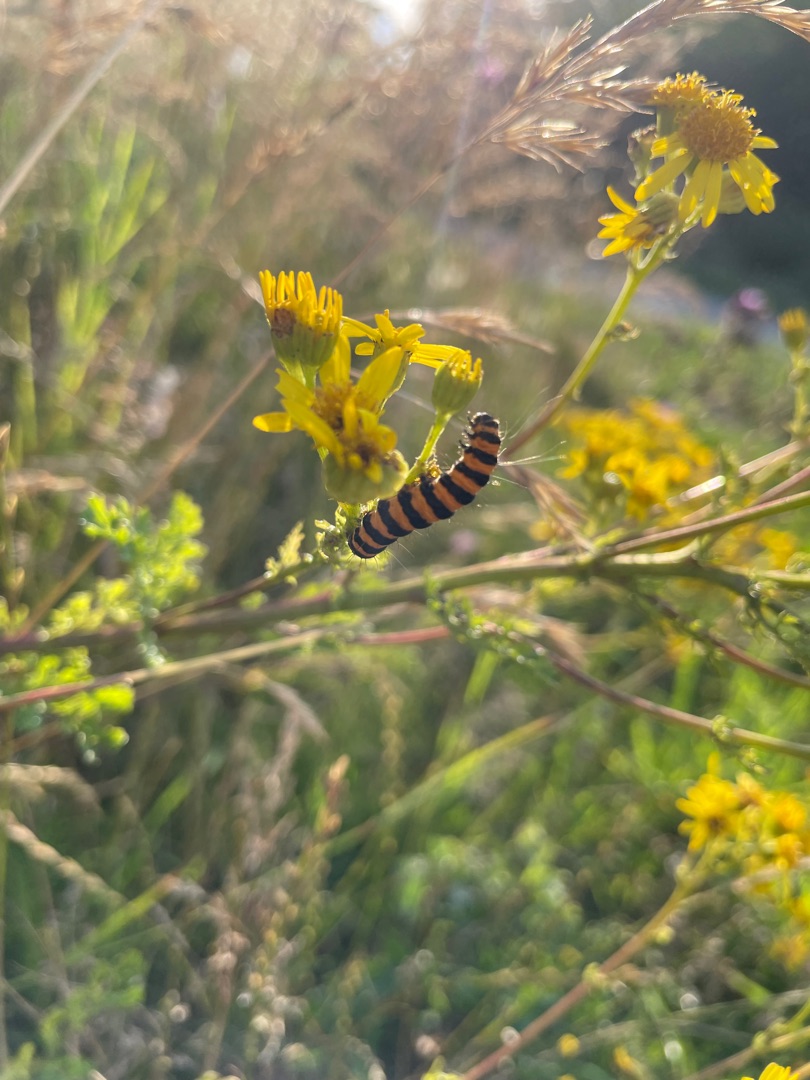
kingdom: Animalia
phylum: Arthropoda
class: Insecta
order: Lepidoptera
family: Erebidae
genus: Tyria
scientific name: Tyria jacobaeae
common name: Blodplet
